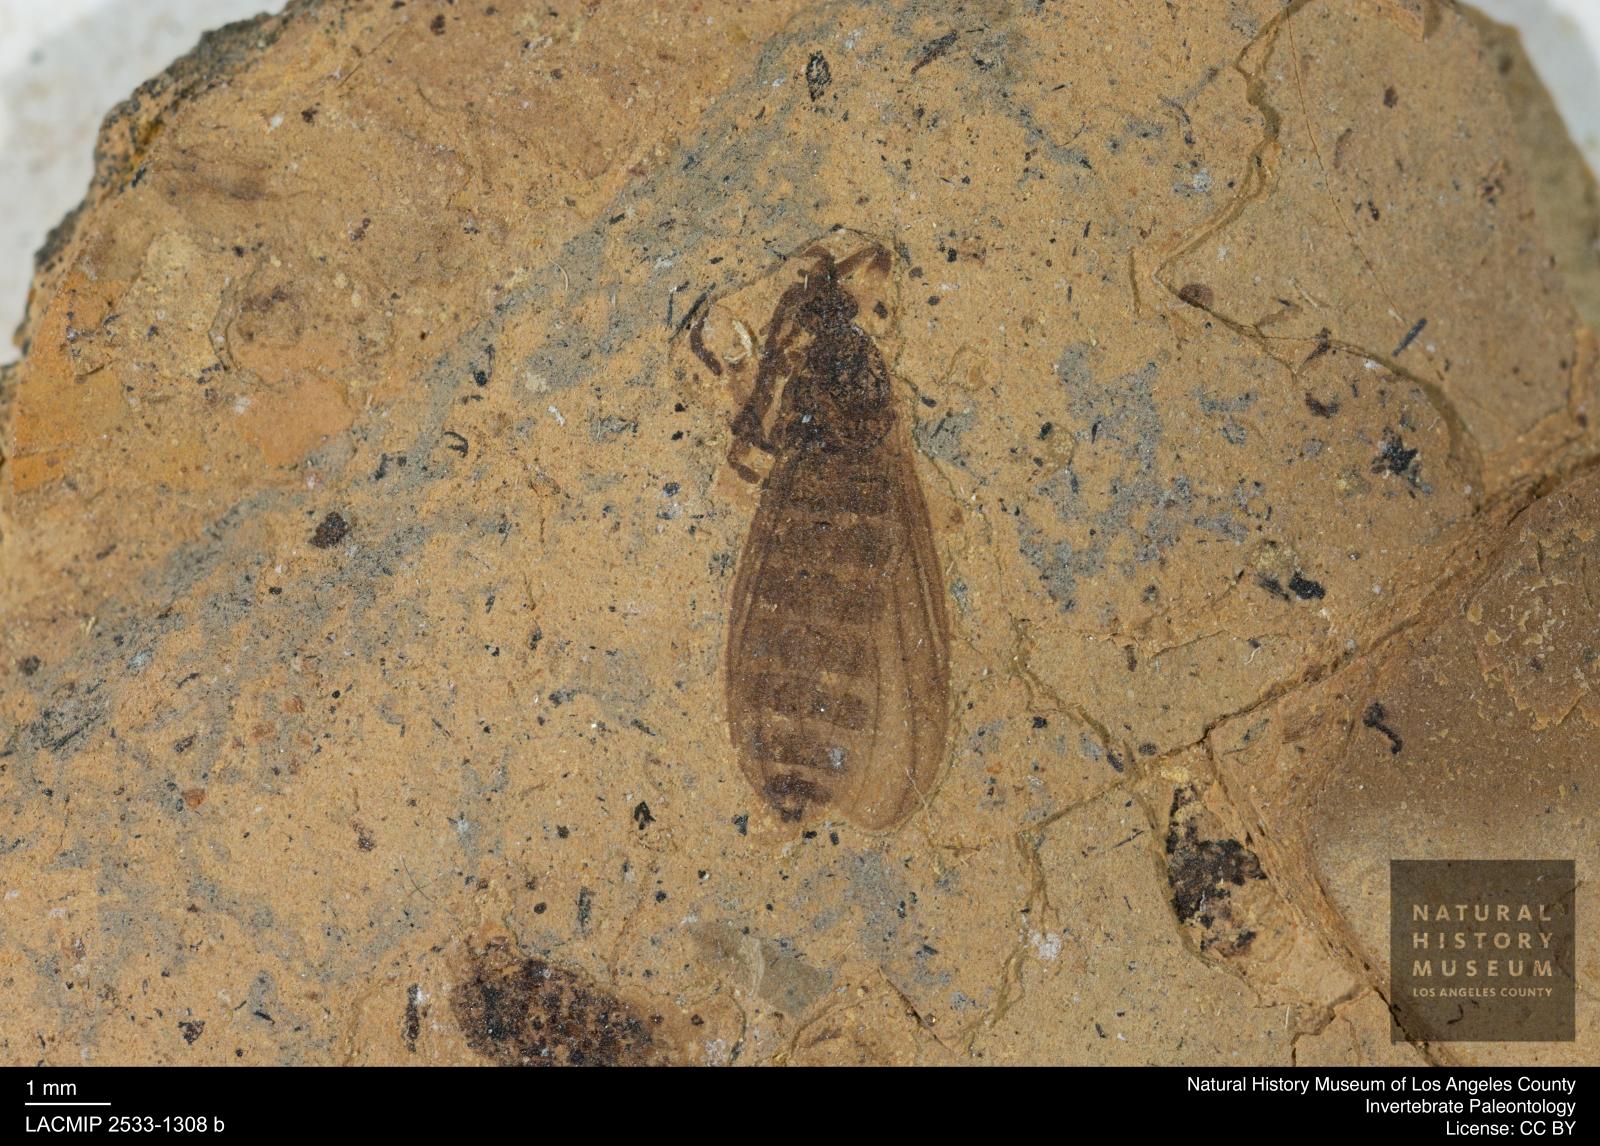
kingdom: Animalia
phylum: Arthropoda
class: Insecta
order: Diptera
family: Bibionidae
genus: Plecia
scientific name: Plecia pinguis
